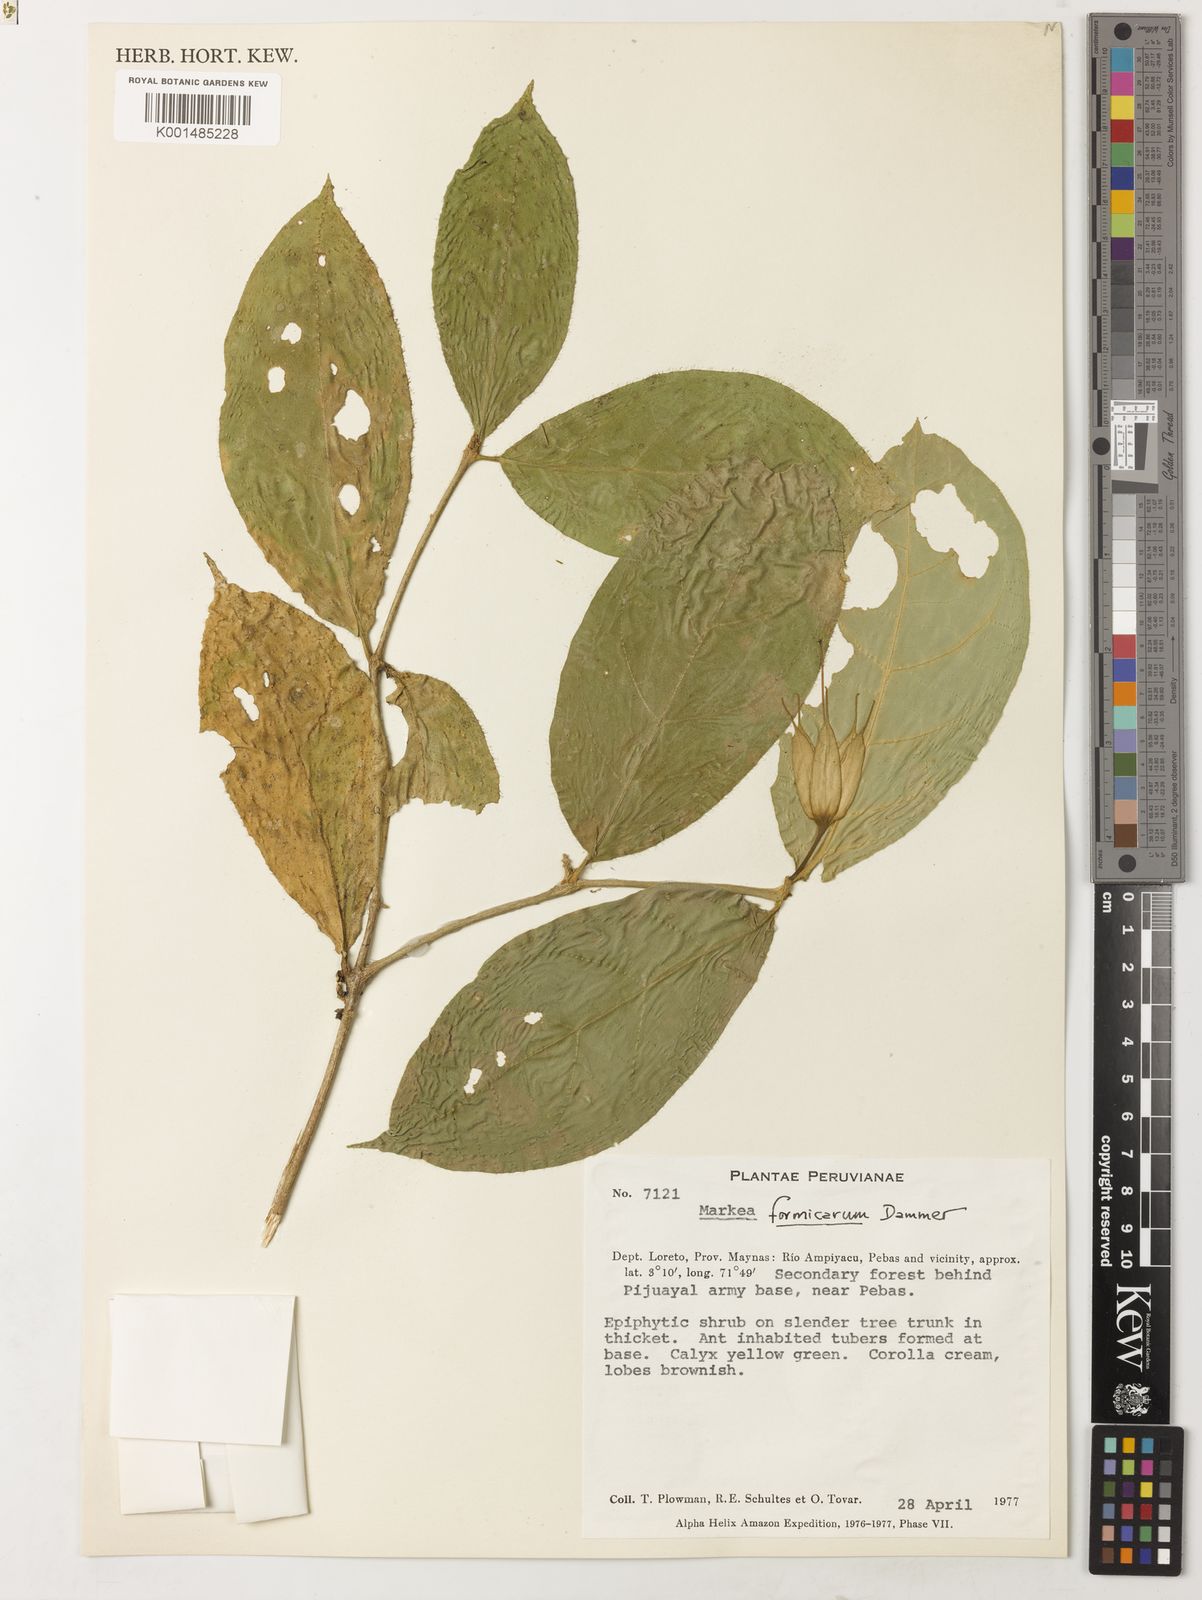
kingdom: Plantae
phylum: Tracheophyta
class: Magnoliopsida
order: Solanales
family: Solanaceae
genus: Markea
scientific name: Markea formicarum
